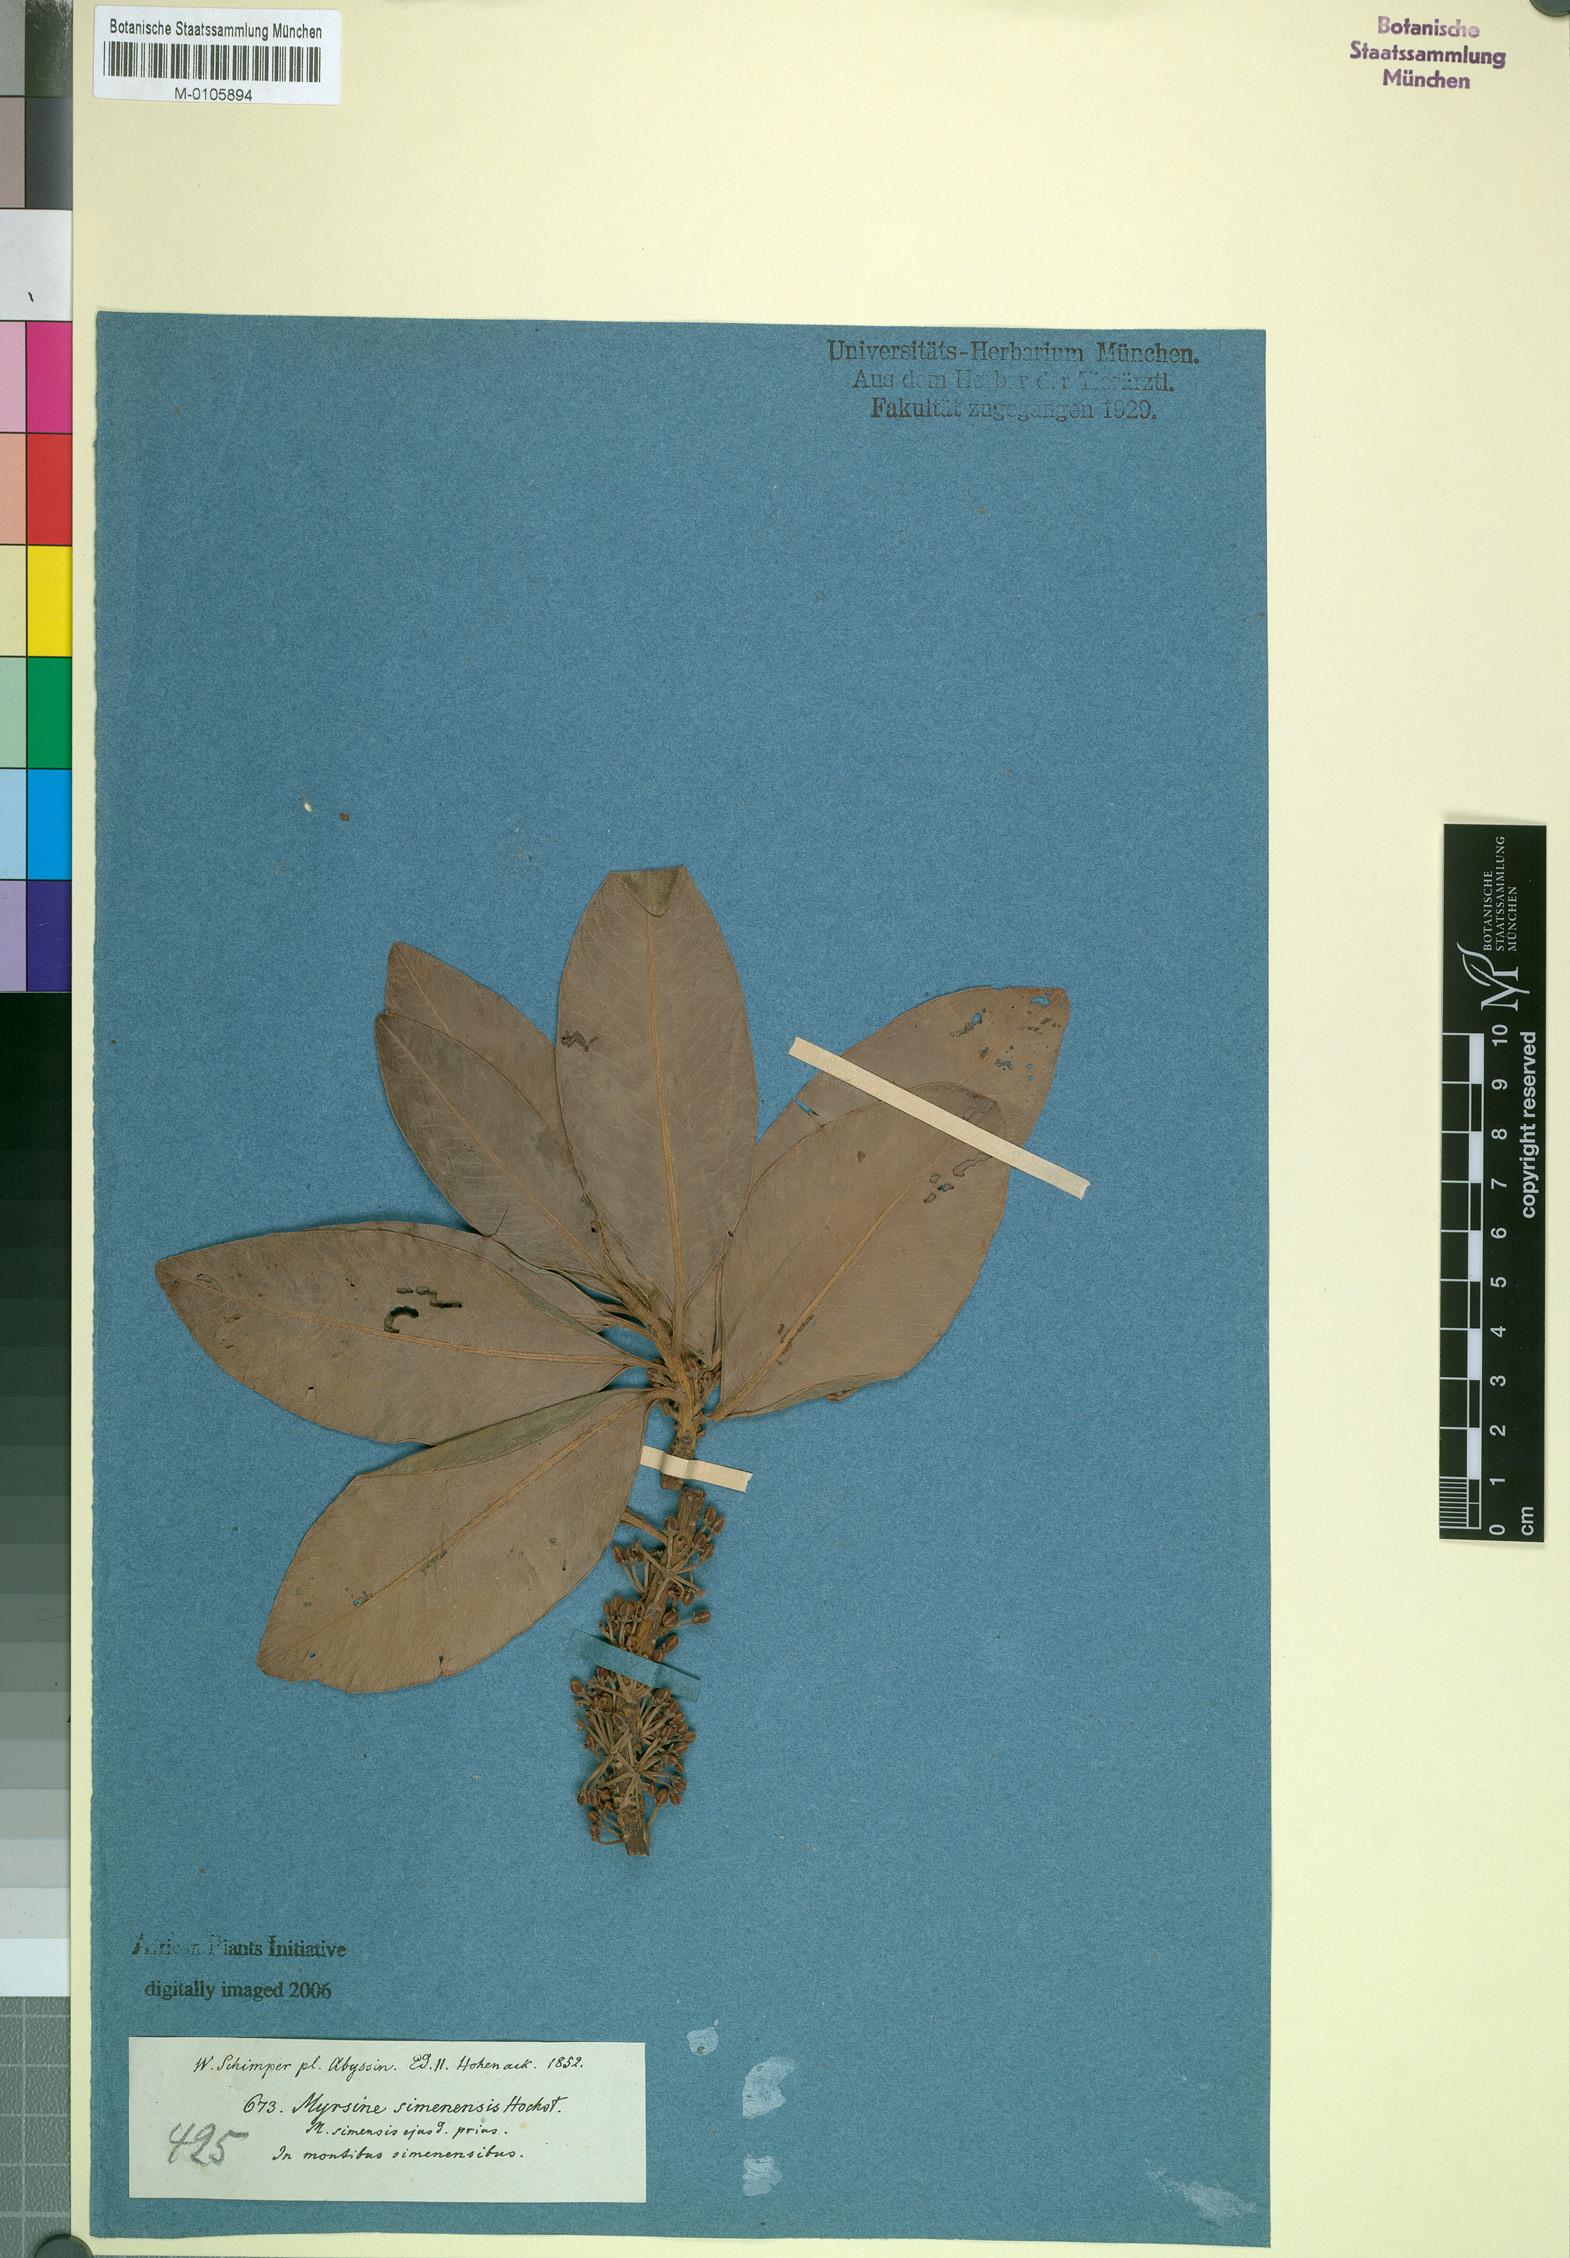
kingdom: Plantae
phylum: Tracheophyta
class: Magnoliopsida
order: Ericales
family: Primulaceae
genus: Myrsine
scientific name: Myrsine melanophloeos
